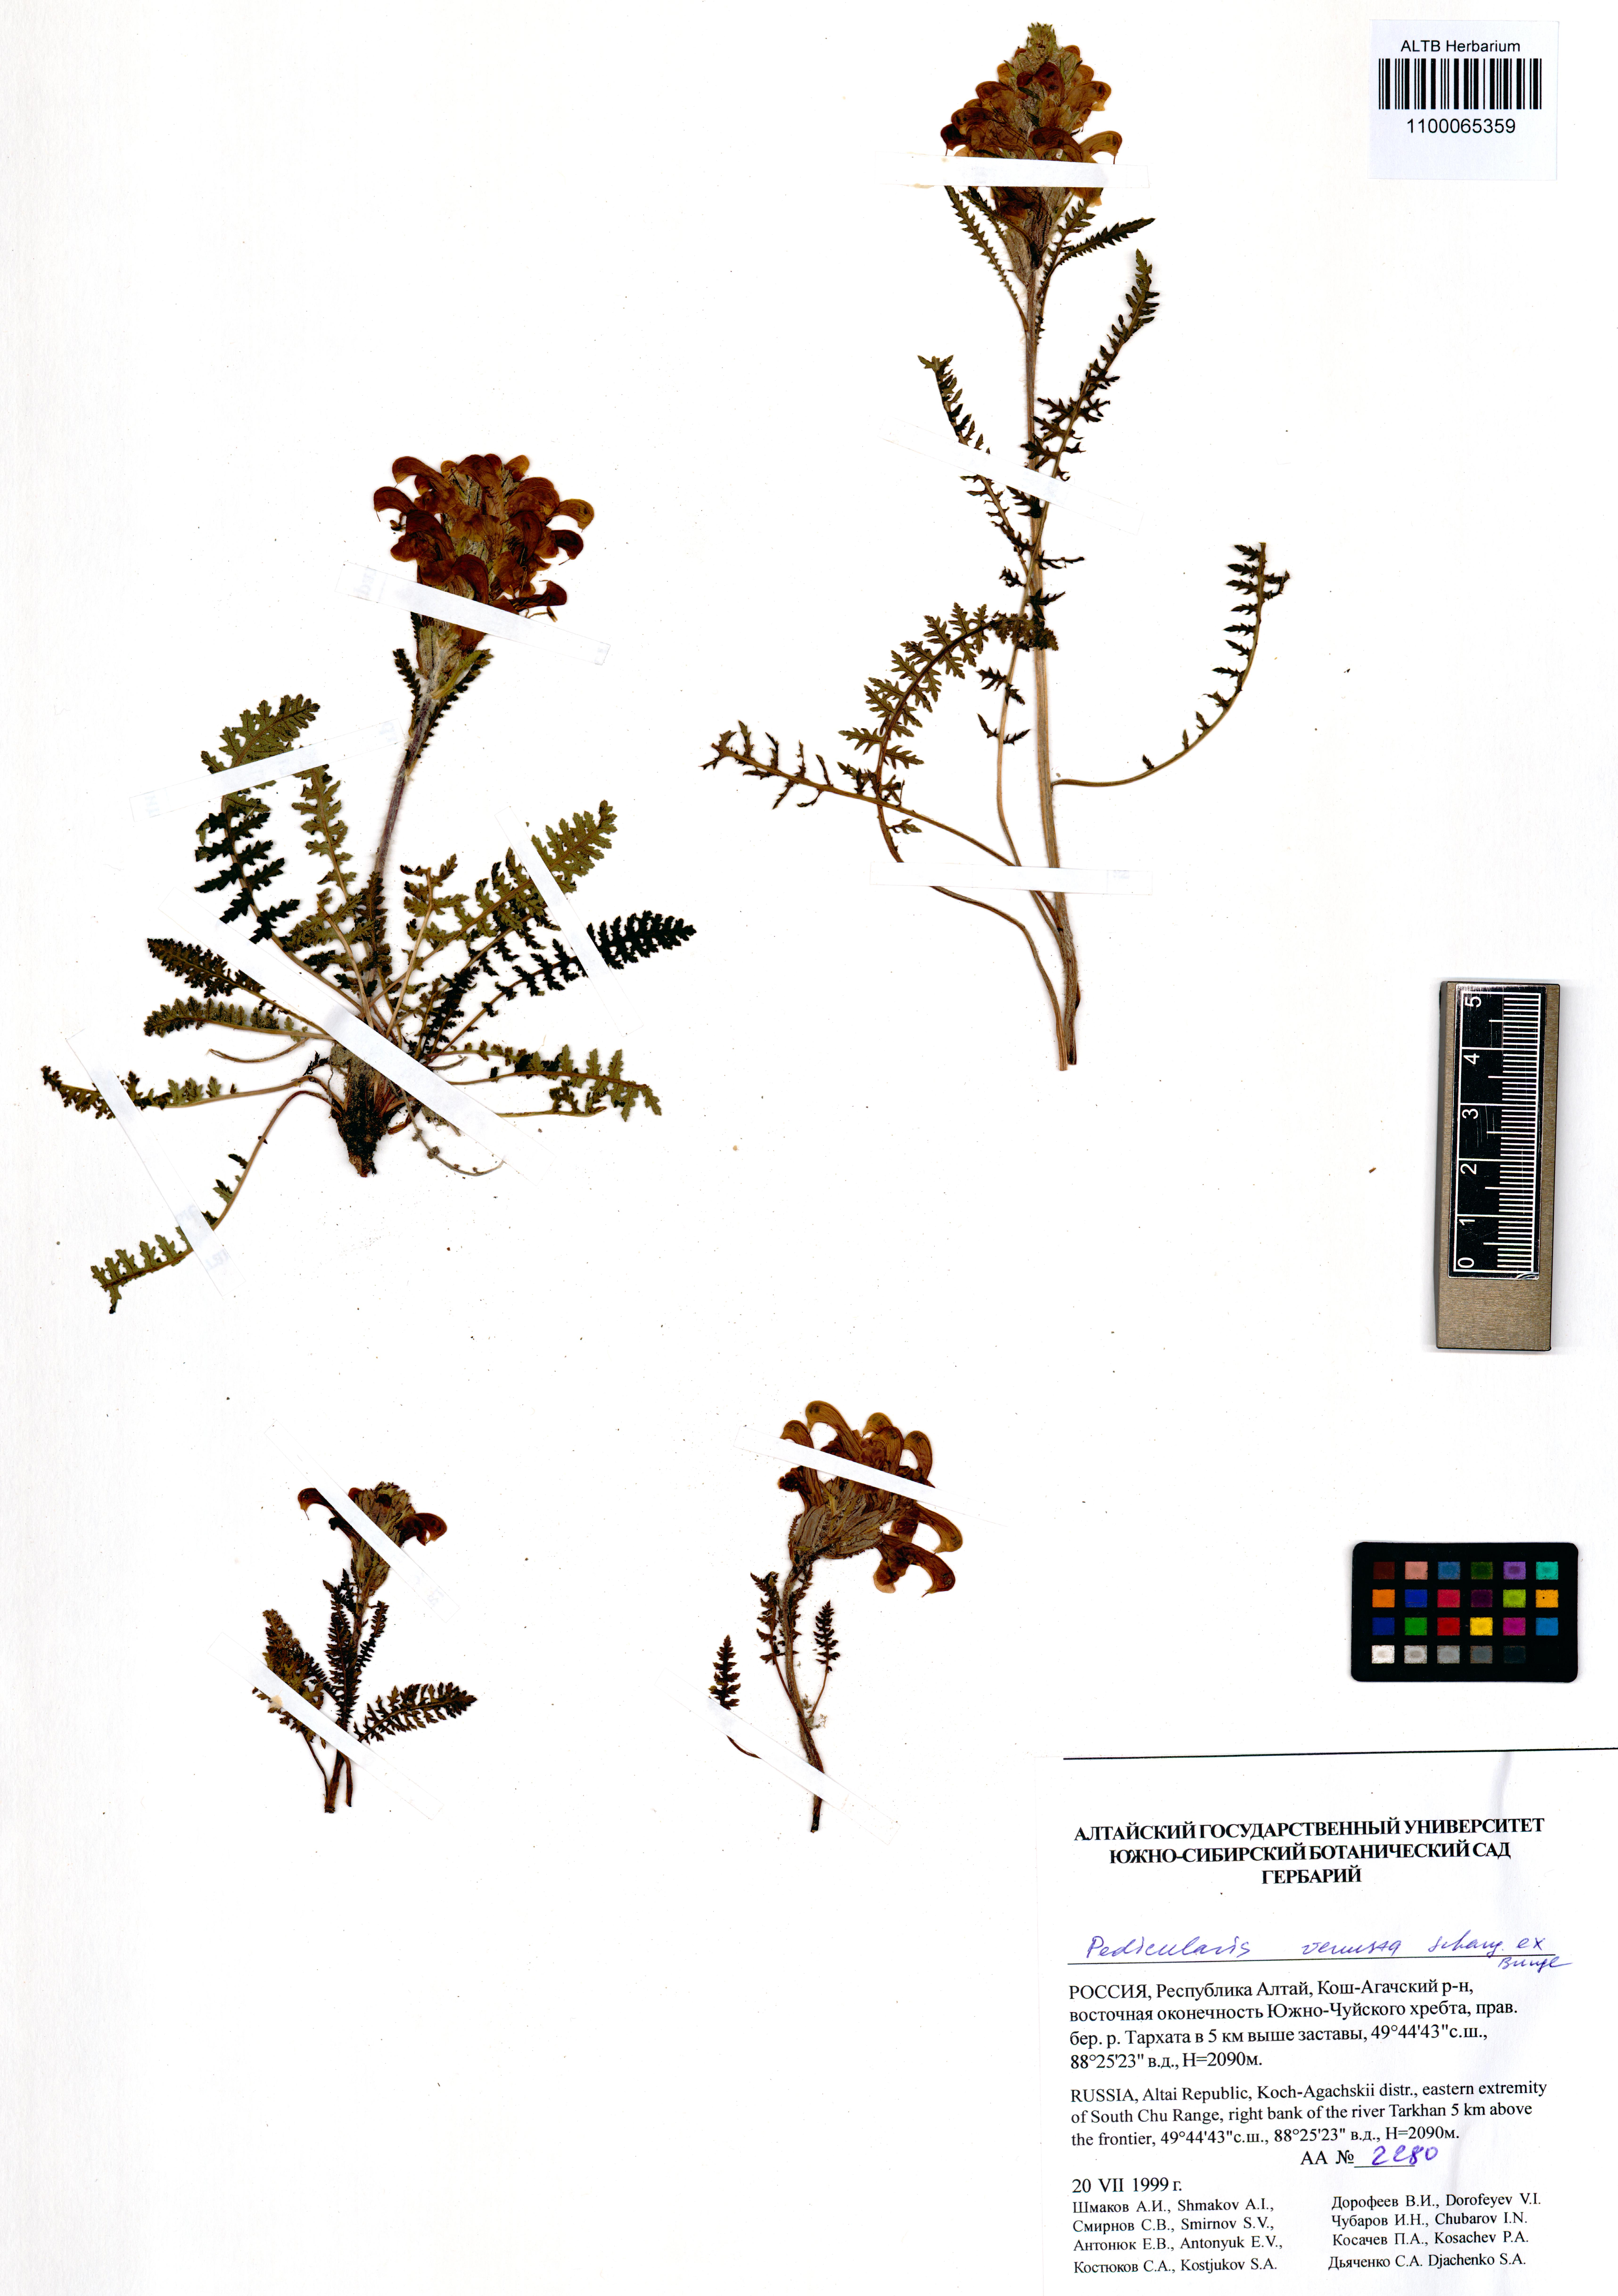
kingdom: Plantae
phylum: Tracheophyta
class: Magnoliopsida
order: Lamiales
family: Orobanchaceae
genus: Pedicularis
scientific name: Pedicularis venusta
